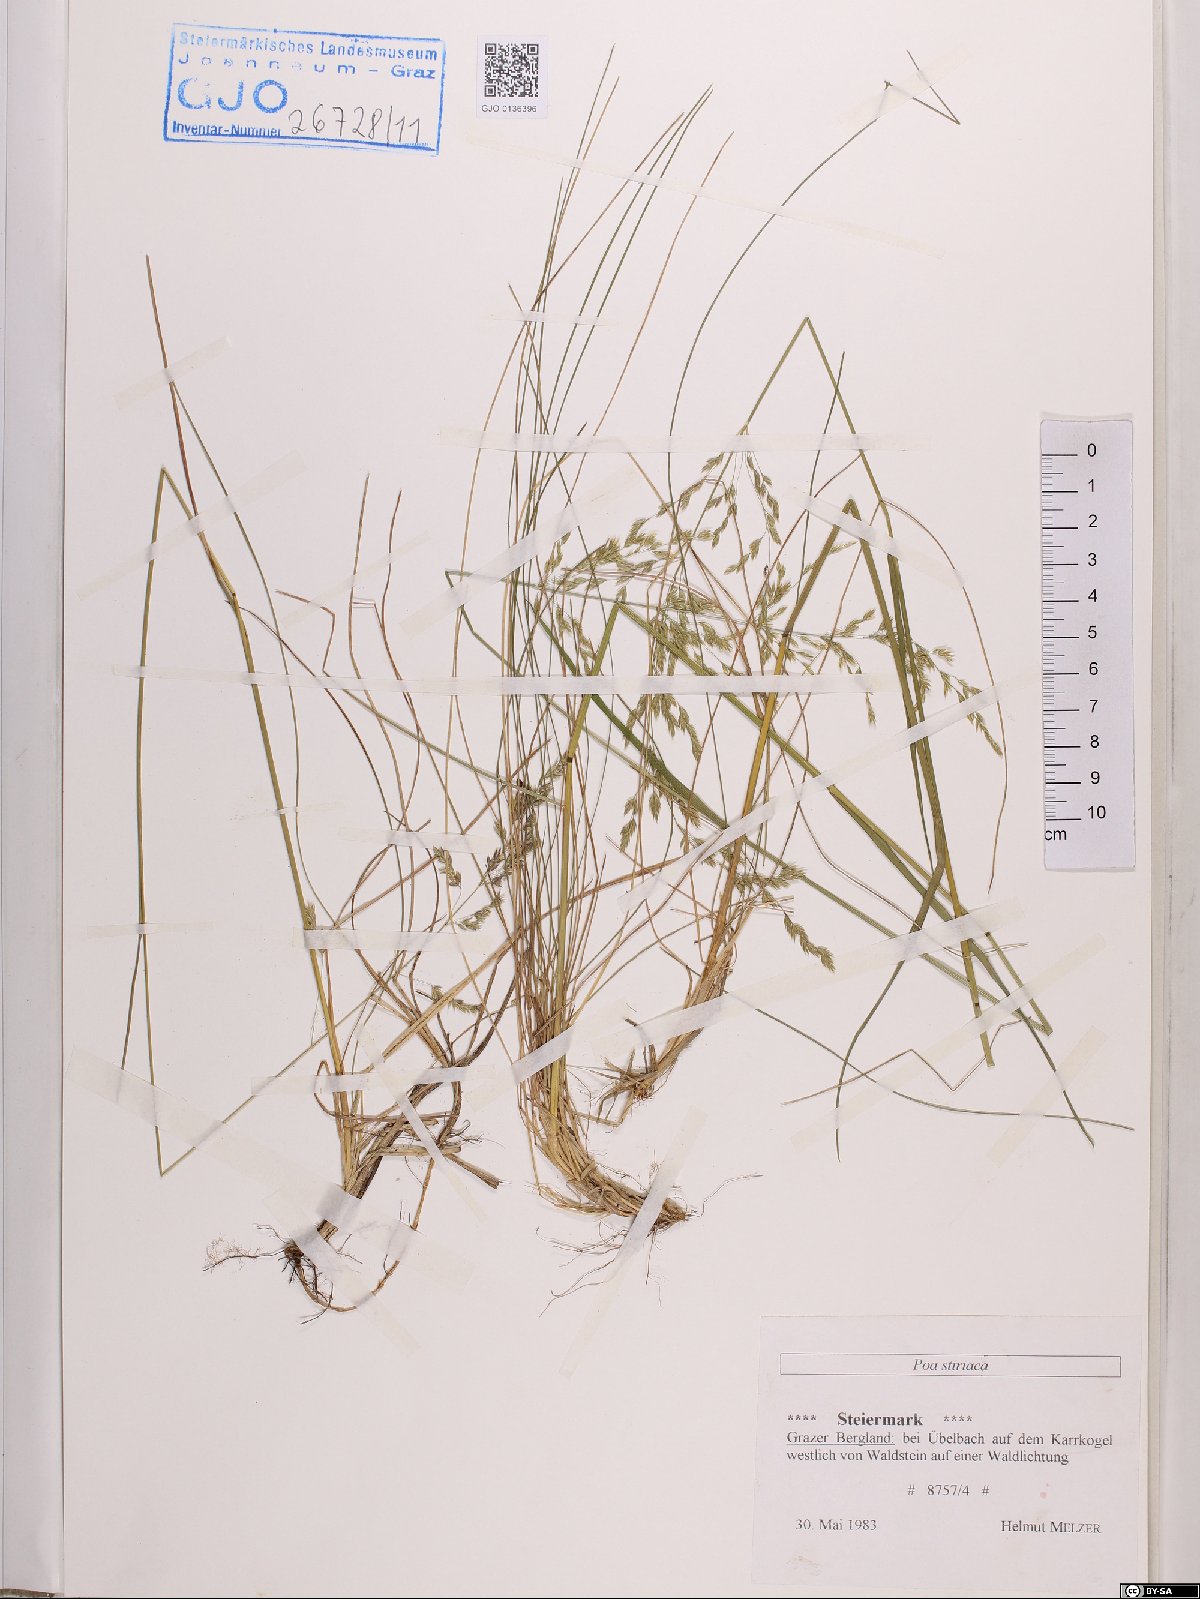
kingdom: Plantae
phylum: Tracheophyta
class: Liliopsida
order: Poales
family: Poaceae
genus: Poa
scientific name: Poa stiriaca
